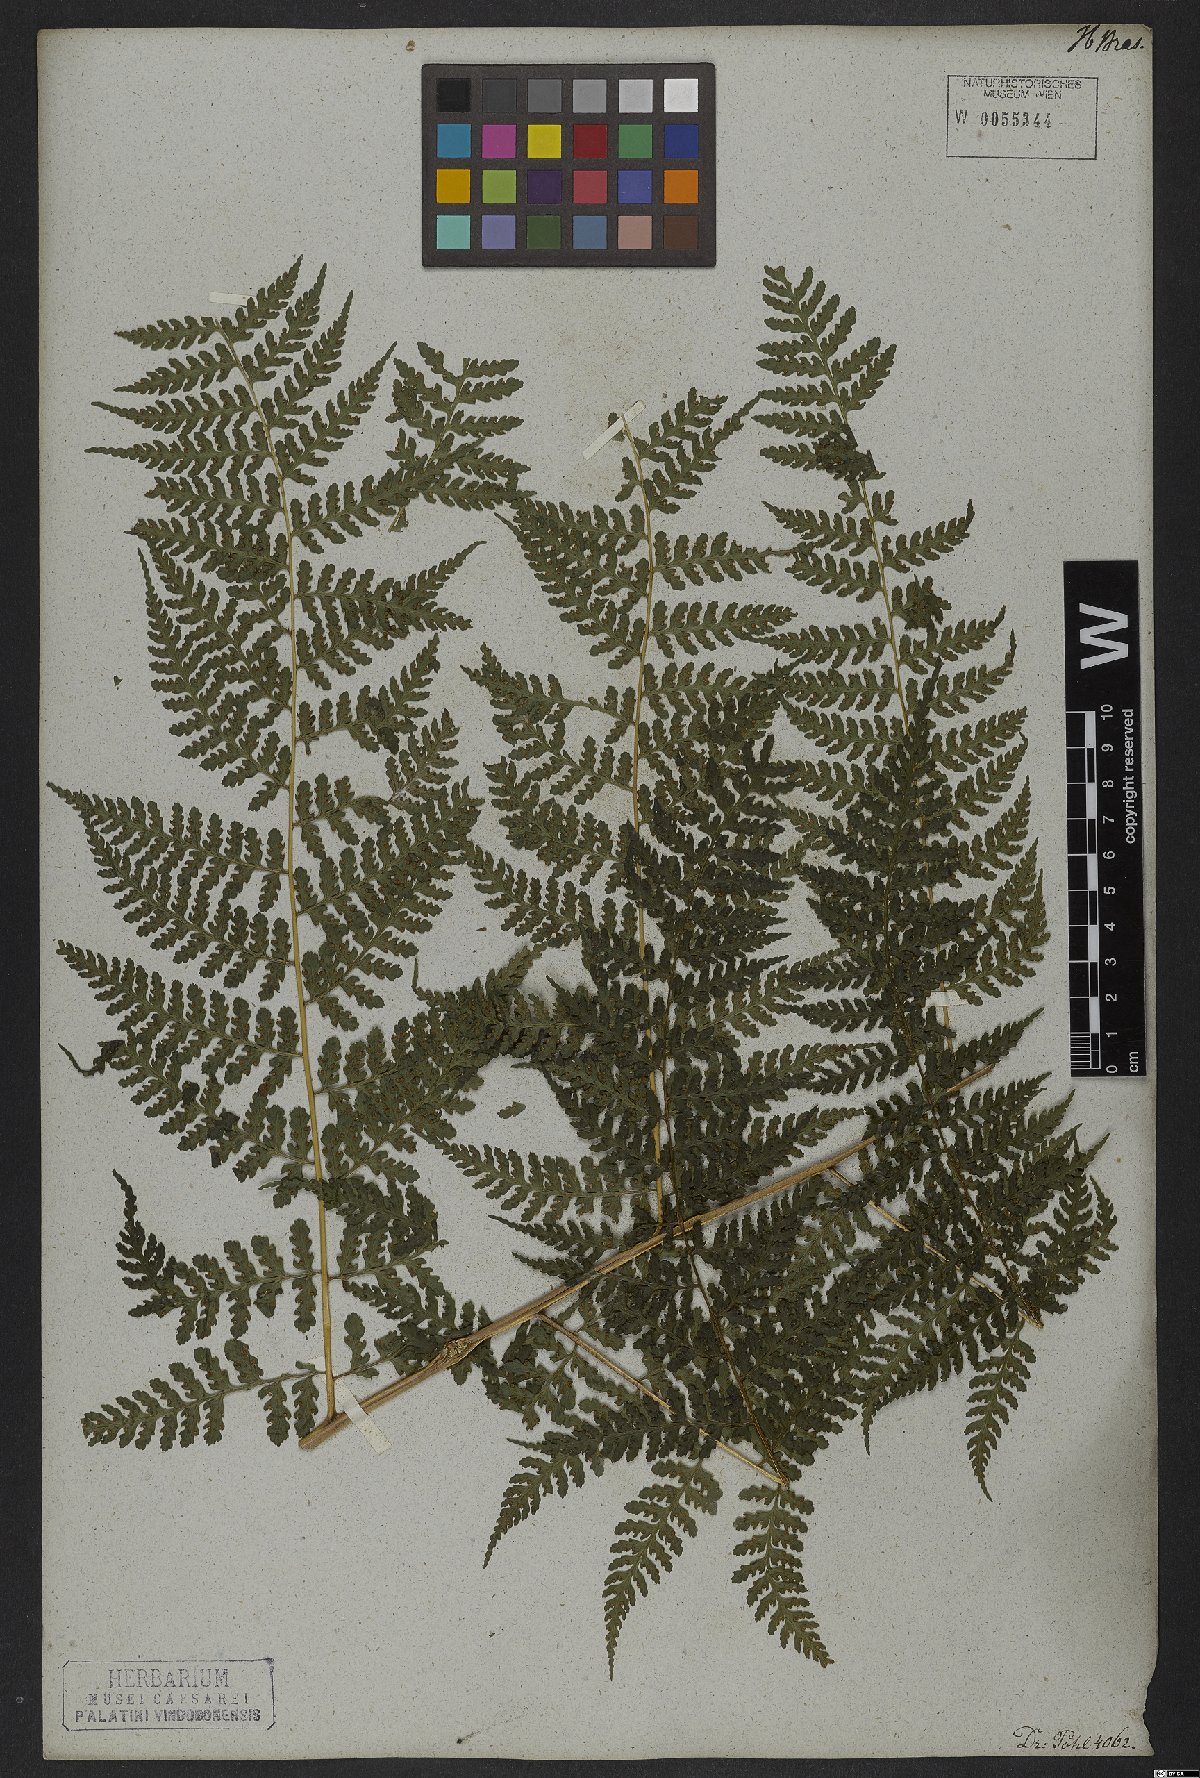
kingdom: Plantae
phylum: Tracheophyta
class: Polypodiopsida
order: Polypodiales
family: Dennstaedtiaceae
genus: Mucura
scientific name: Mucura globulifera
